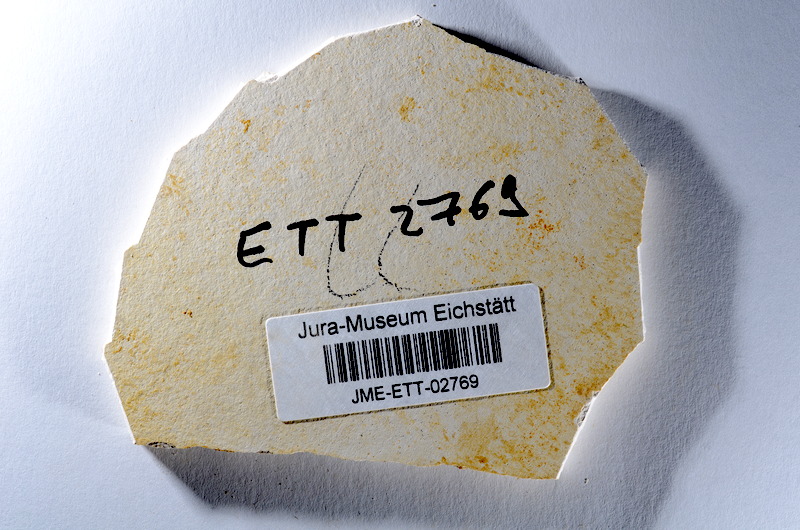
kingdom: Animalia
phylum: Chordata
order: Salmoniformes
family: Orthogonikleithridae
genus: Orthogonikleithrus
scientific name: Orthogonikleithrus hoelli
